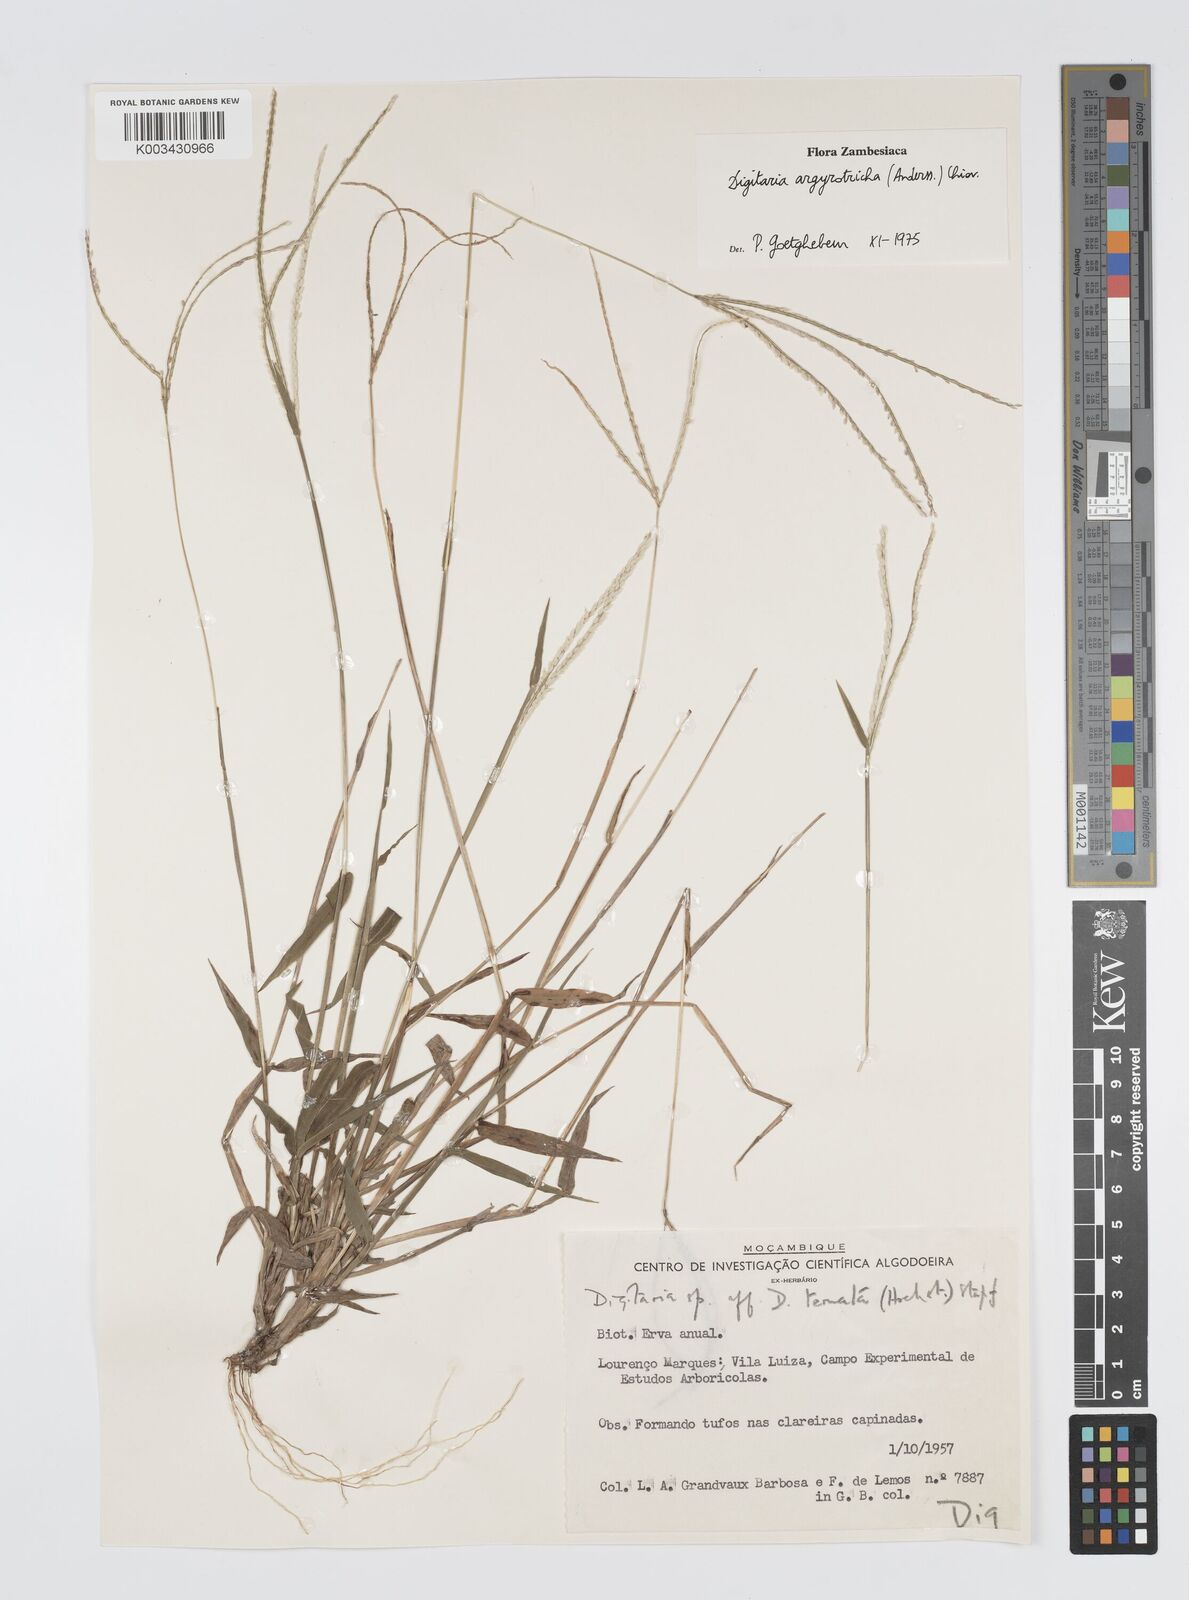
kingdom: Plantae
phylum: Tracheophyta
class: Liliopsida
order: Poales
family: Poaceae
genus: Digitaria
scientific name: Digitaria argyrotricha
